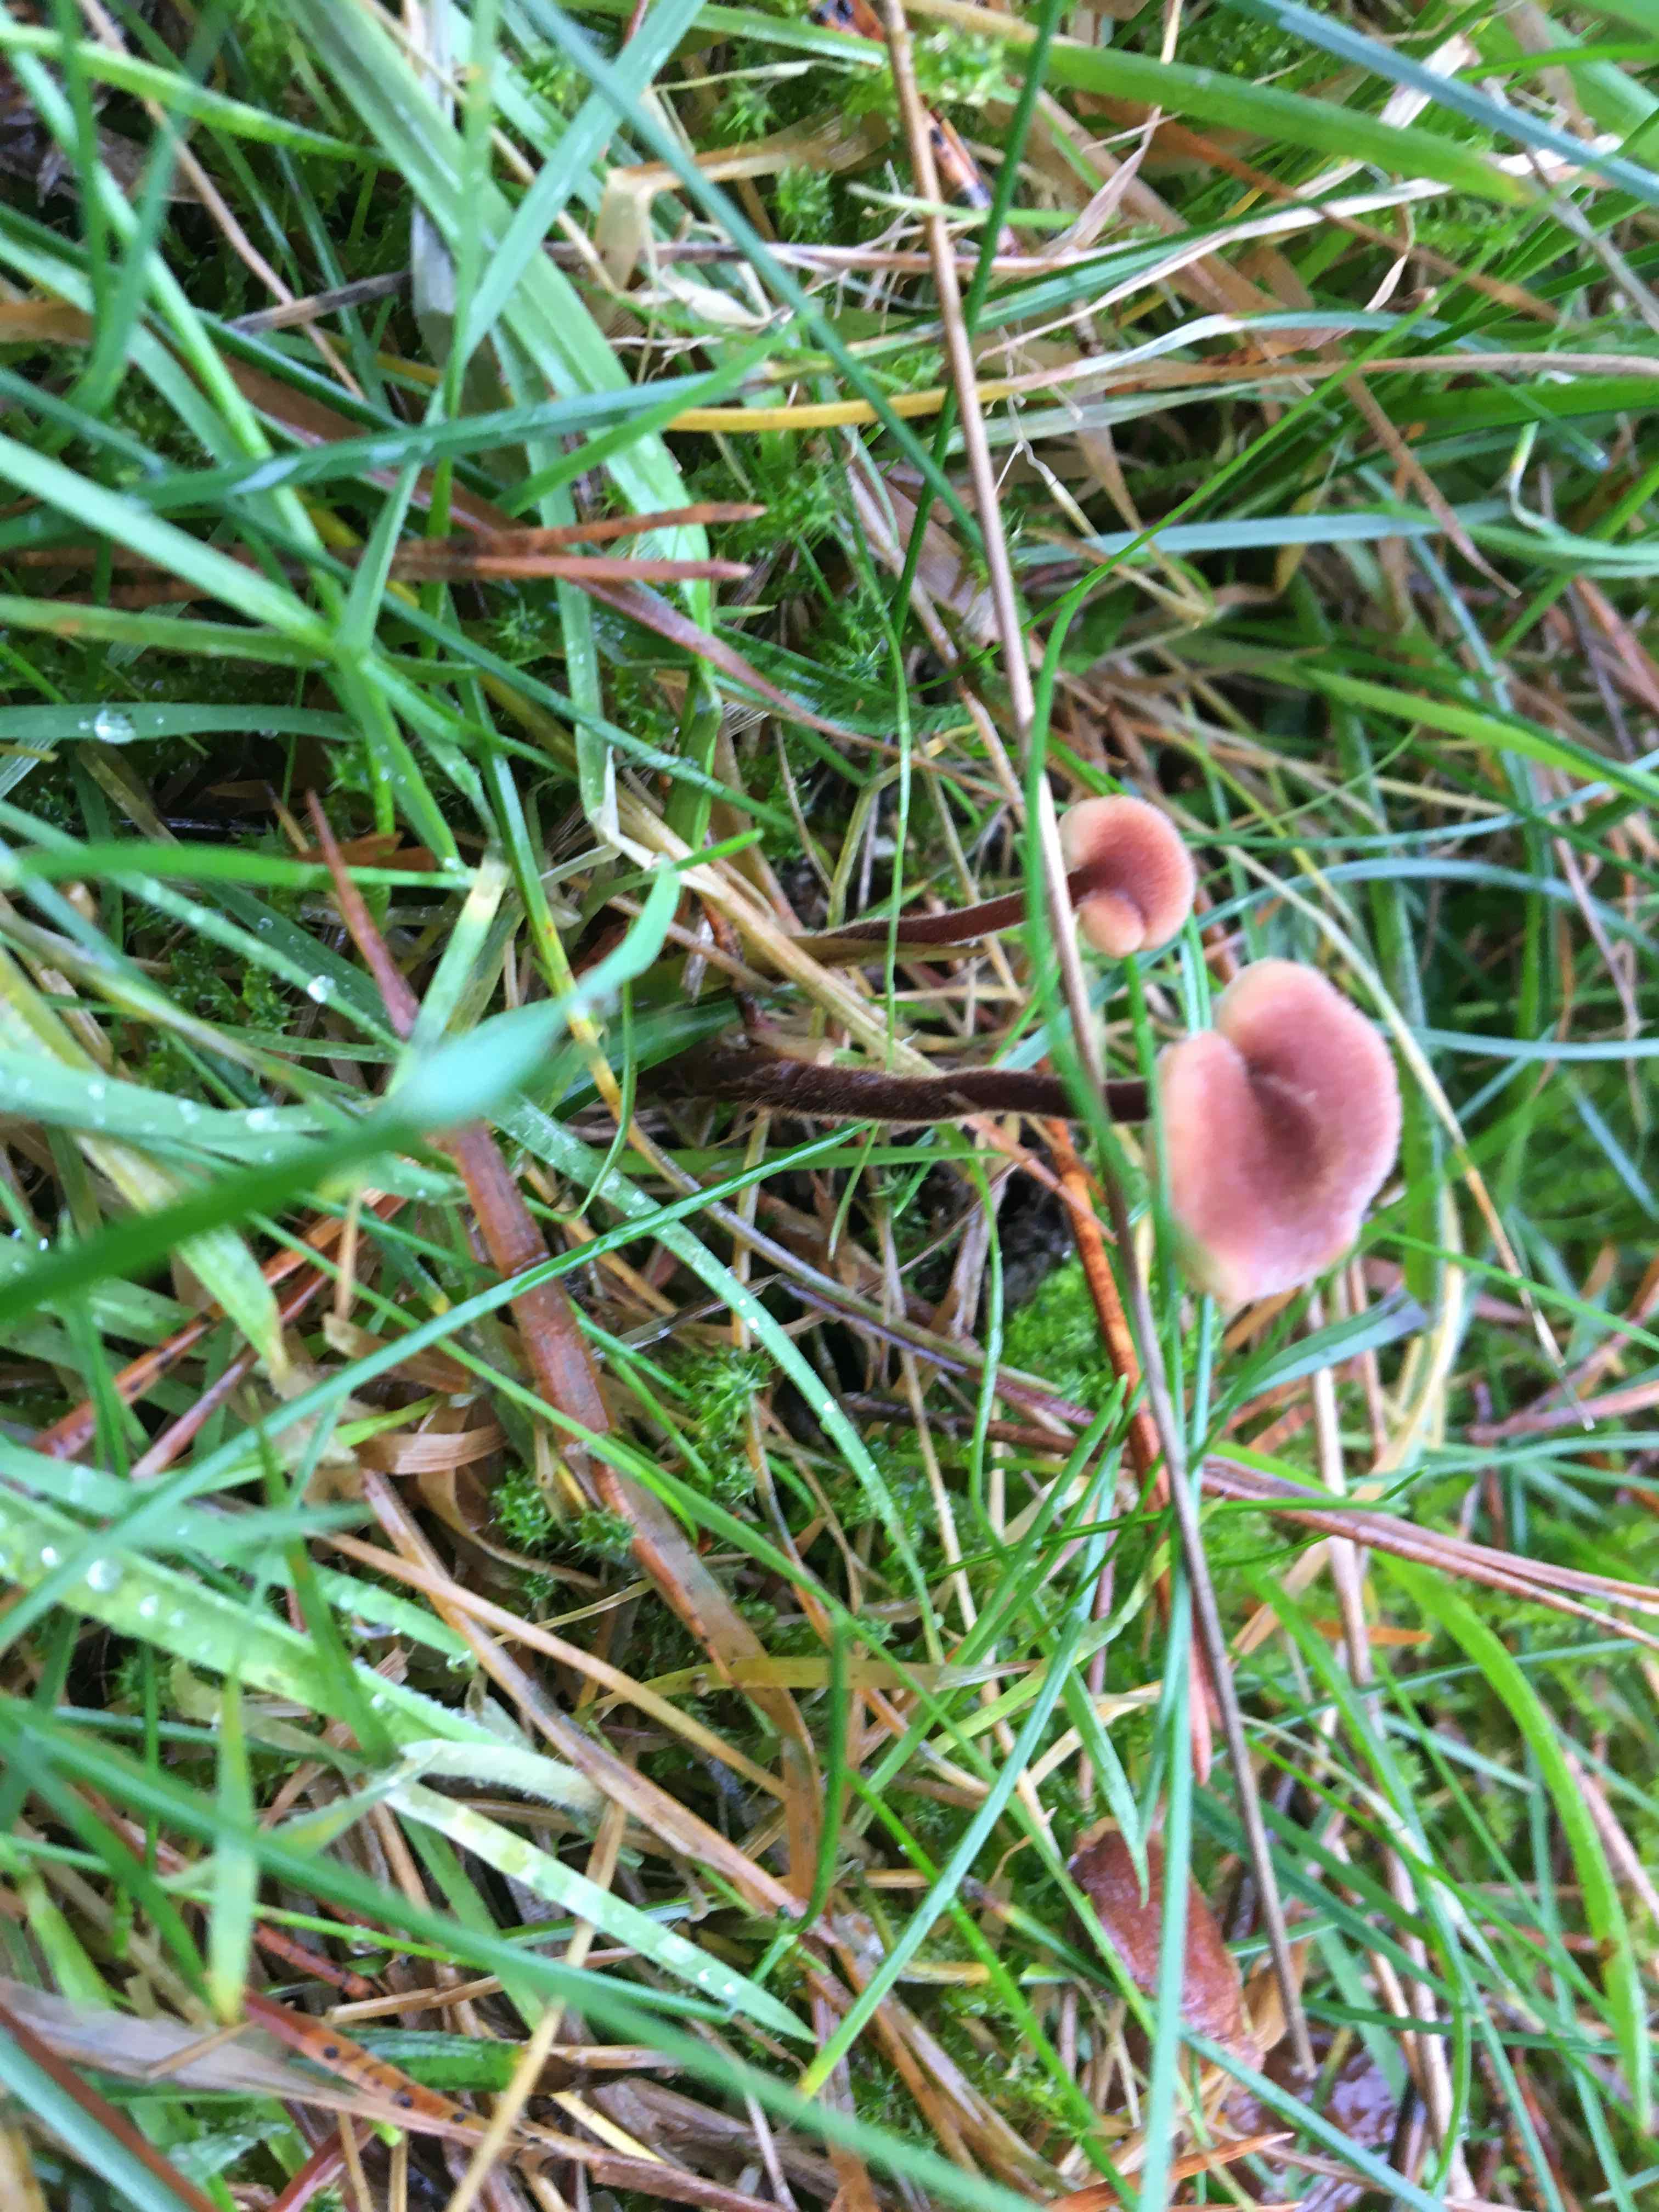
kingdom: Fungi
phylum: Basidiomycota
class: Agaricomycetes
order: Russulales
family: Auriscalpiaceae
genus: Auriscalpium
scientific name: Auriscalpium vulgare
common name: koglepigsvamp
